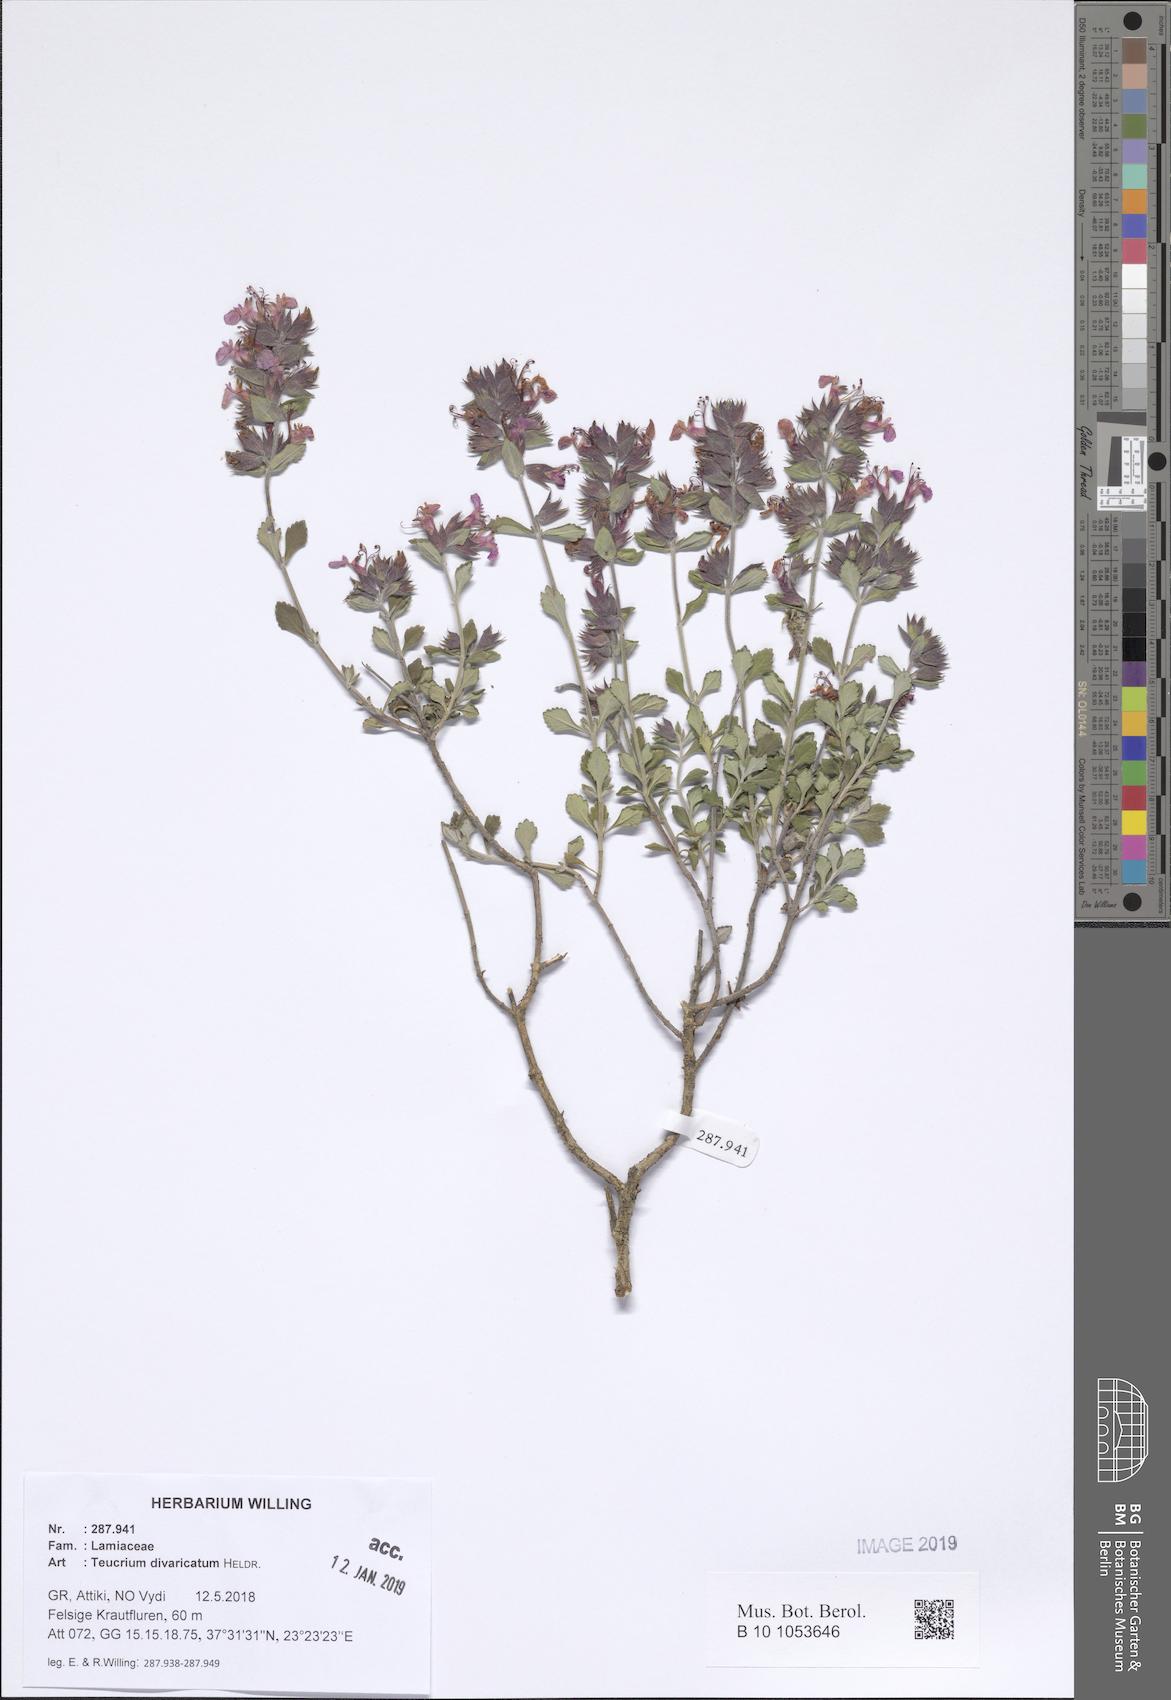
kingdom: Plantae
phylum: Tracheophyta
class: Magnoliopsida
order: Lamiales
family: Lamiaceae
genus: Teucrium
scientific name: Teucrium divaricatum
